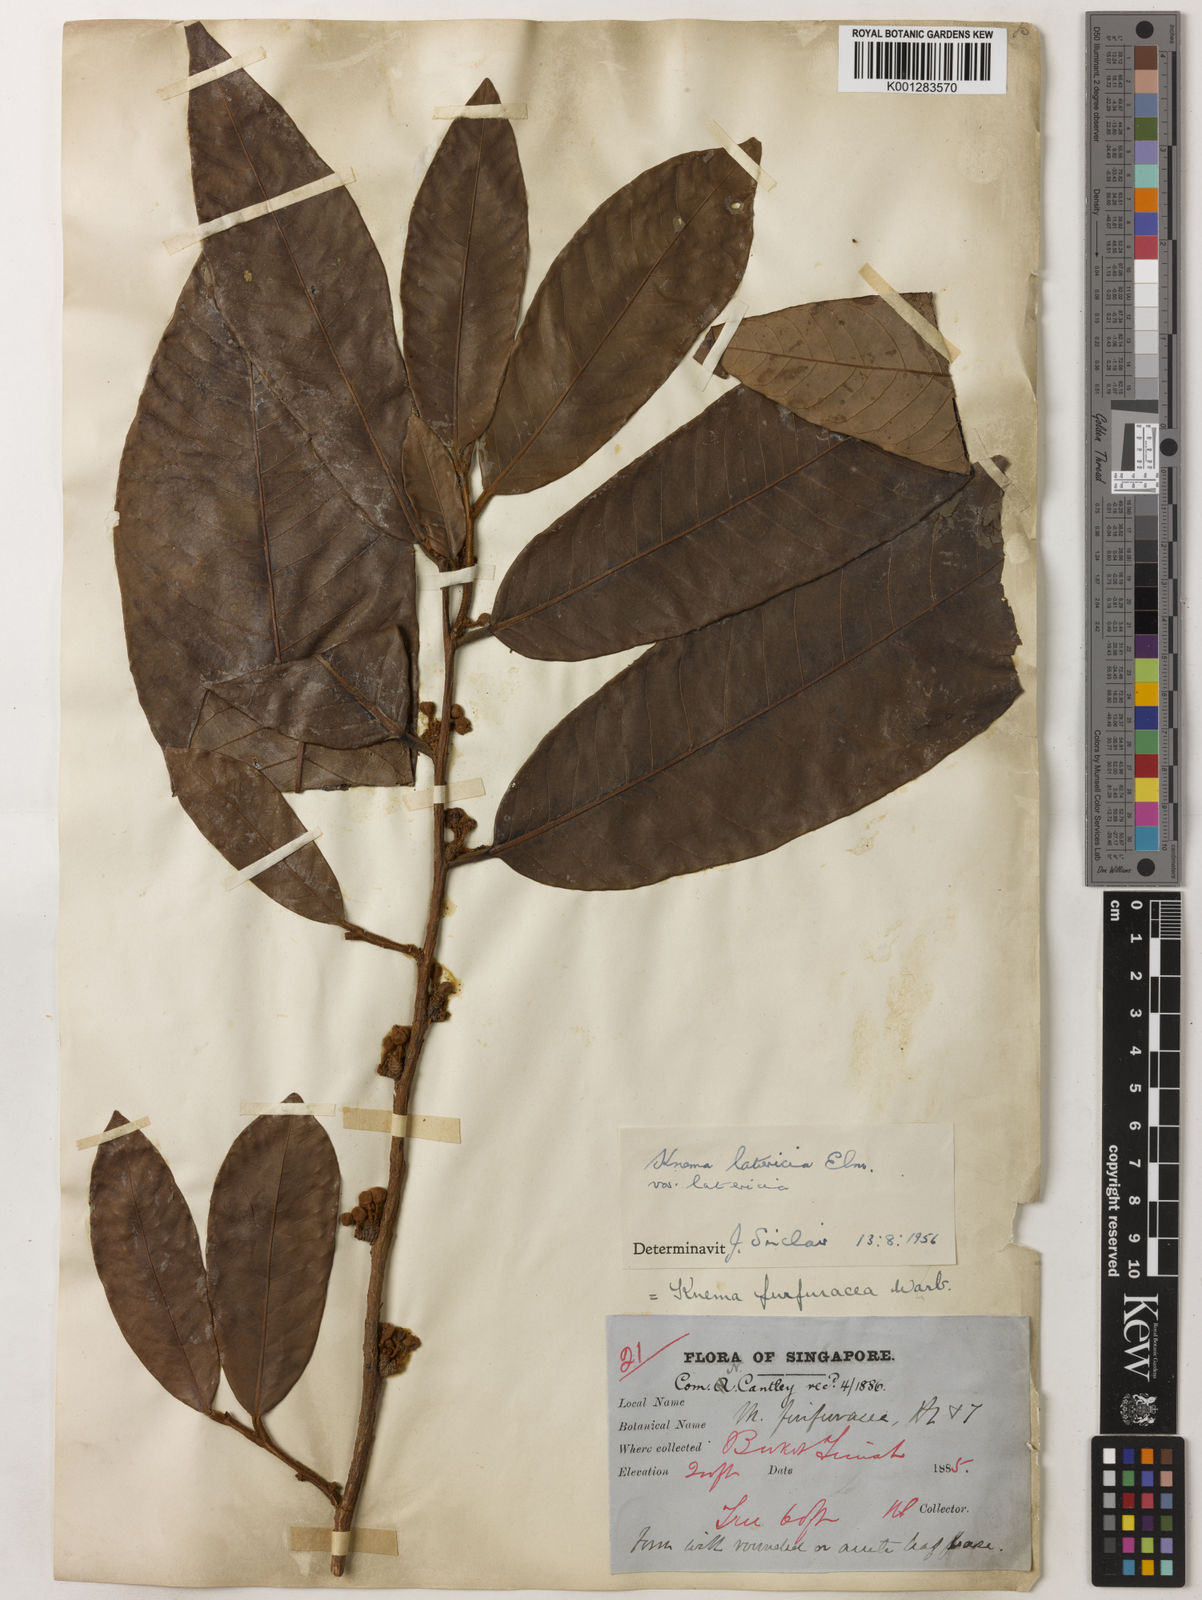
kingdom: Plantae
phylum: Tracheophyta
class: Magnoliopsida
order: Magnoliales
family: Myristicaceae
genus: Knema
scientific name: Knema latericia
